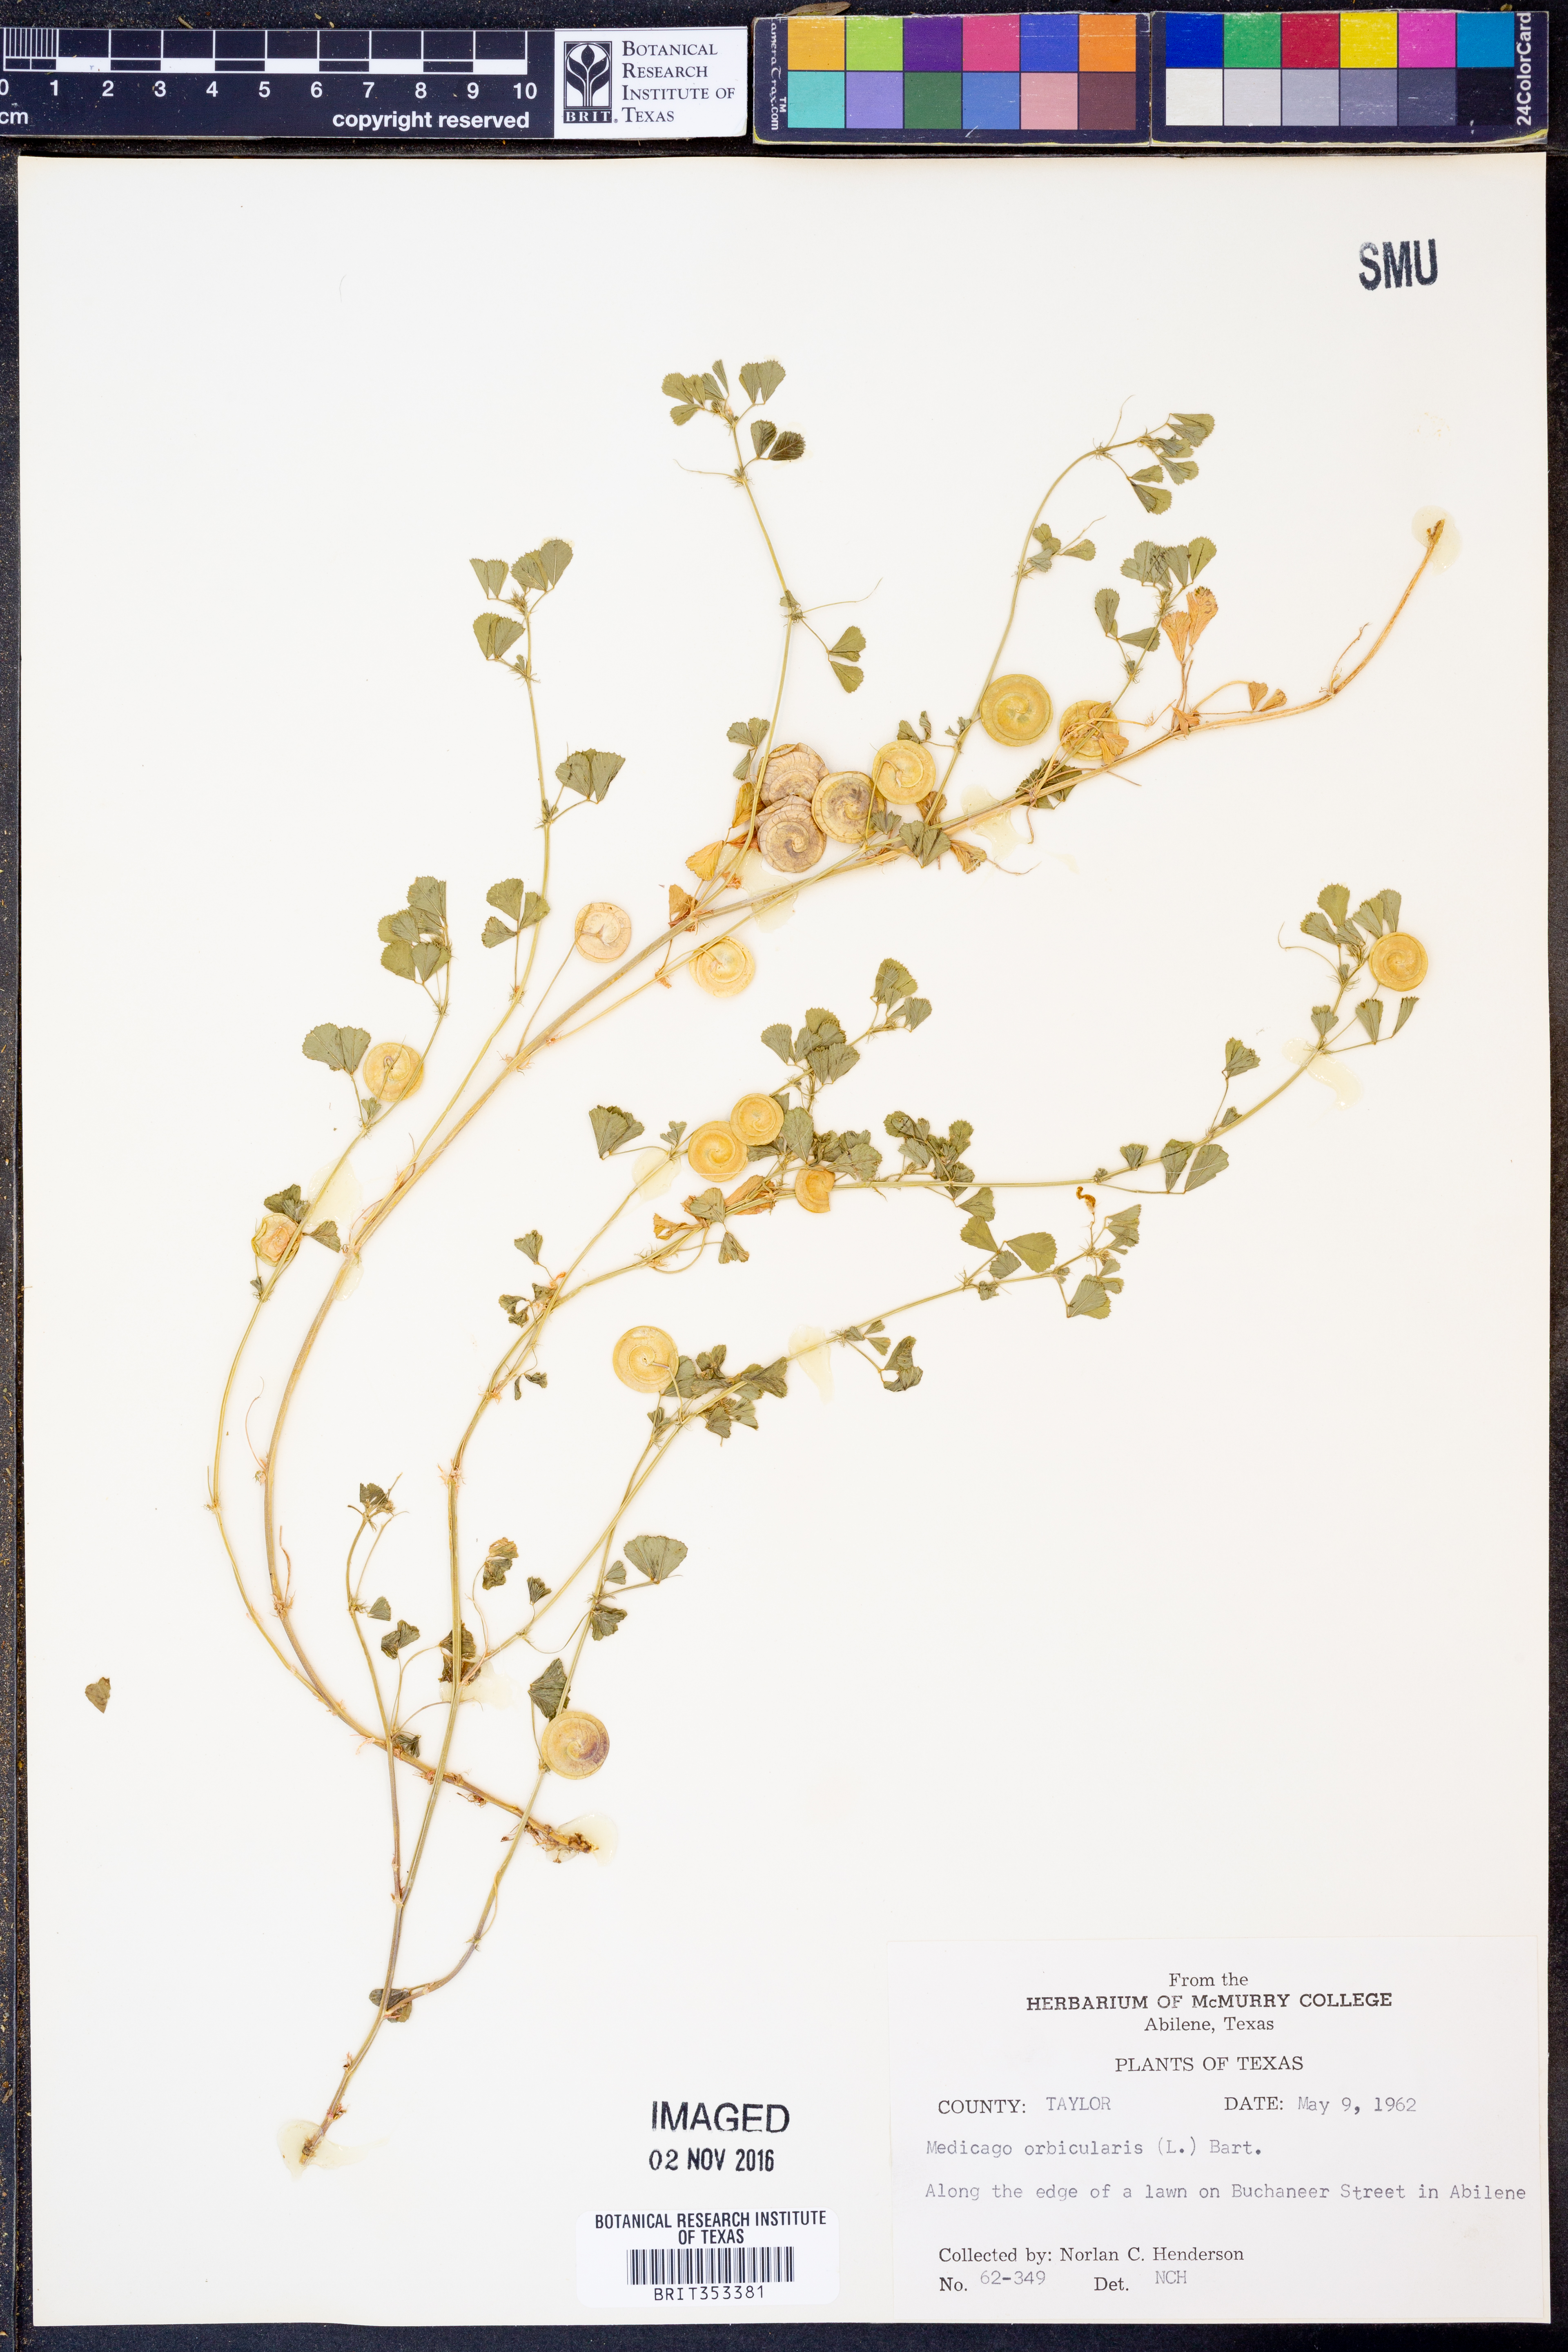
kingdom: Plantae
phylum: Tracheophyta
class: Magnoliopsida
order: Fabales
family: Fabaceae
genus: Medicago
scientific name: Medicago orbicularis
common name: Button medick
